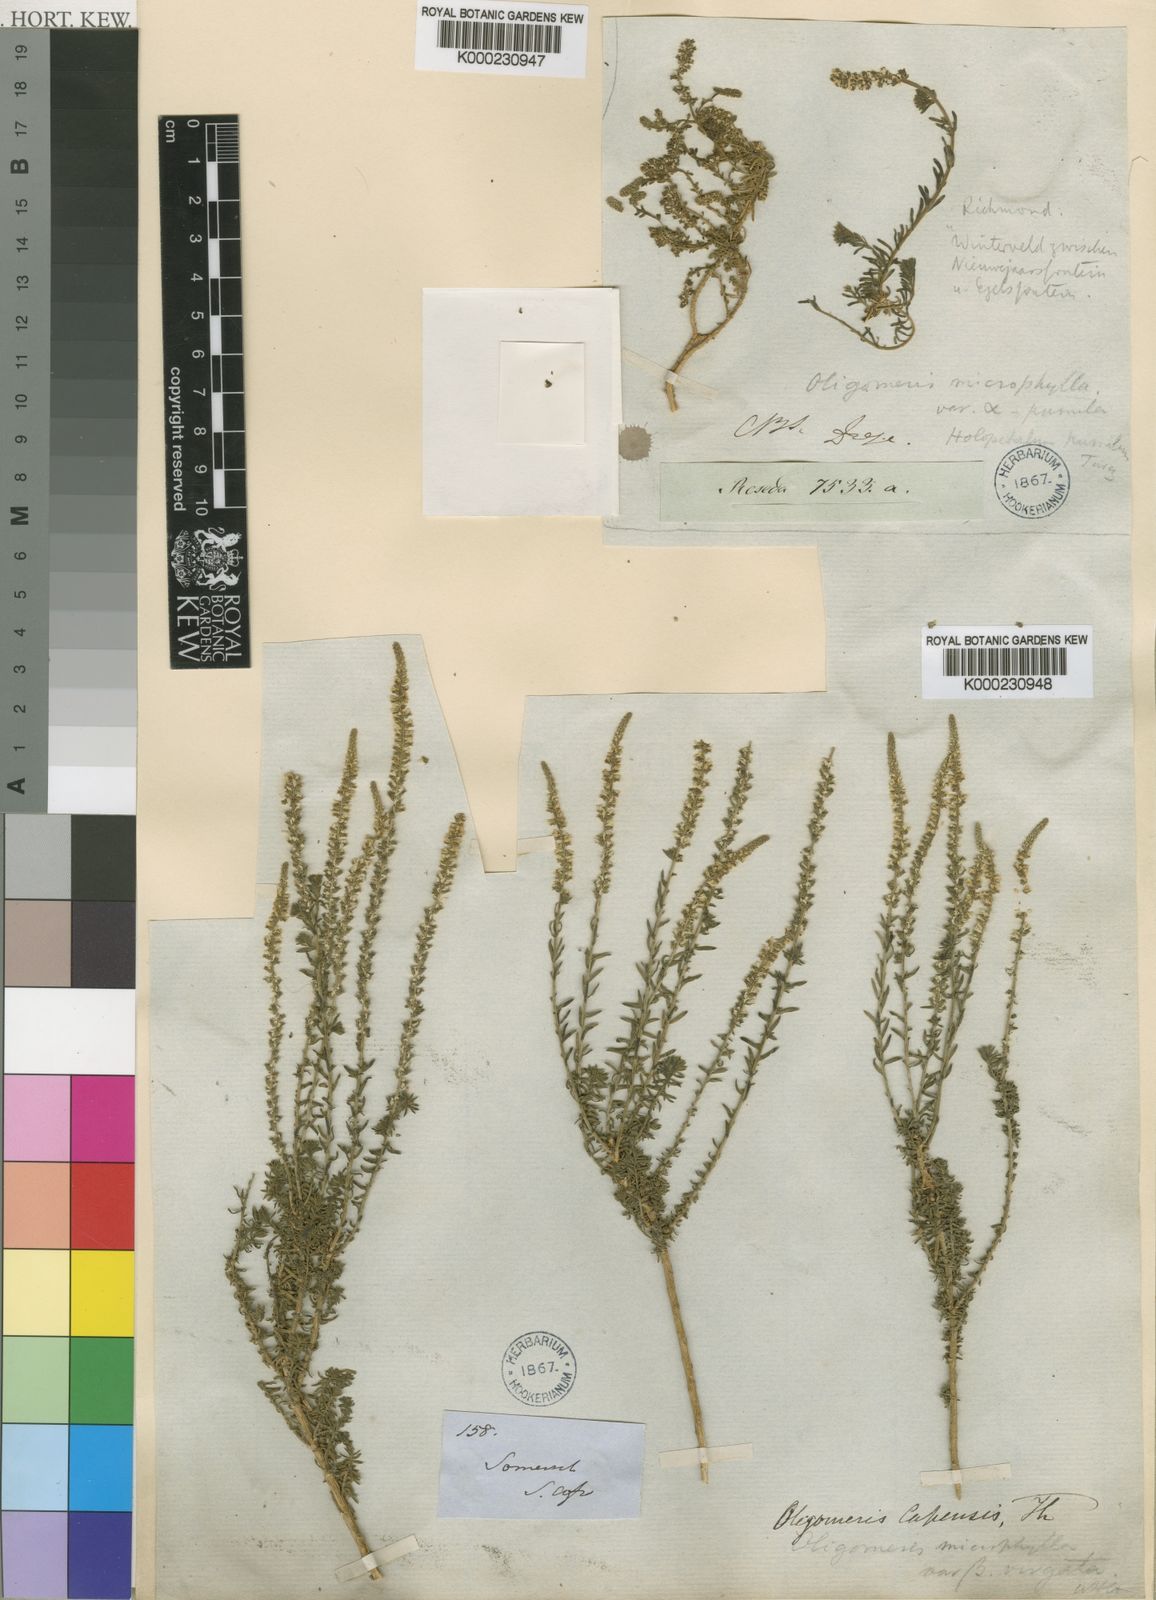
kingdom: Plantae
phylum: Tracheophyta
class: Magnoliopsida
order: Brassicales
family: Resedaceae
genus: Oligomeris
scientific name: Oligomeris dipetala
